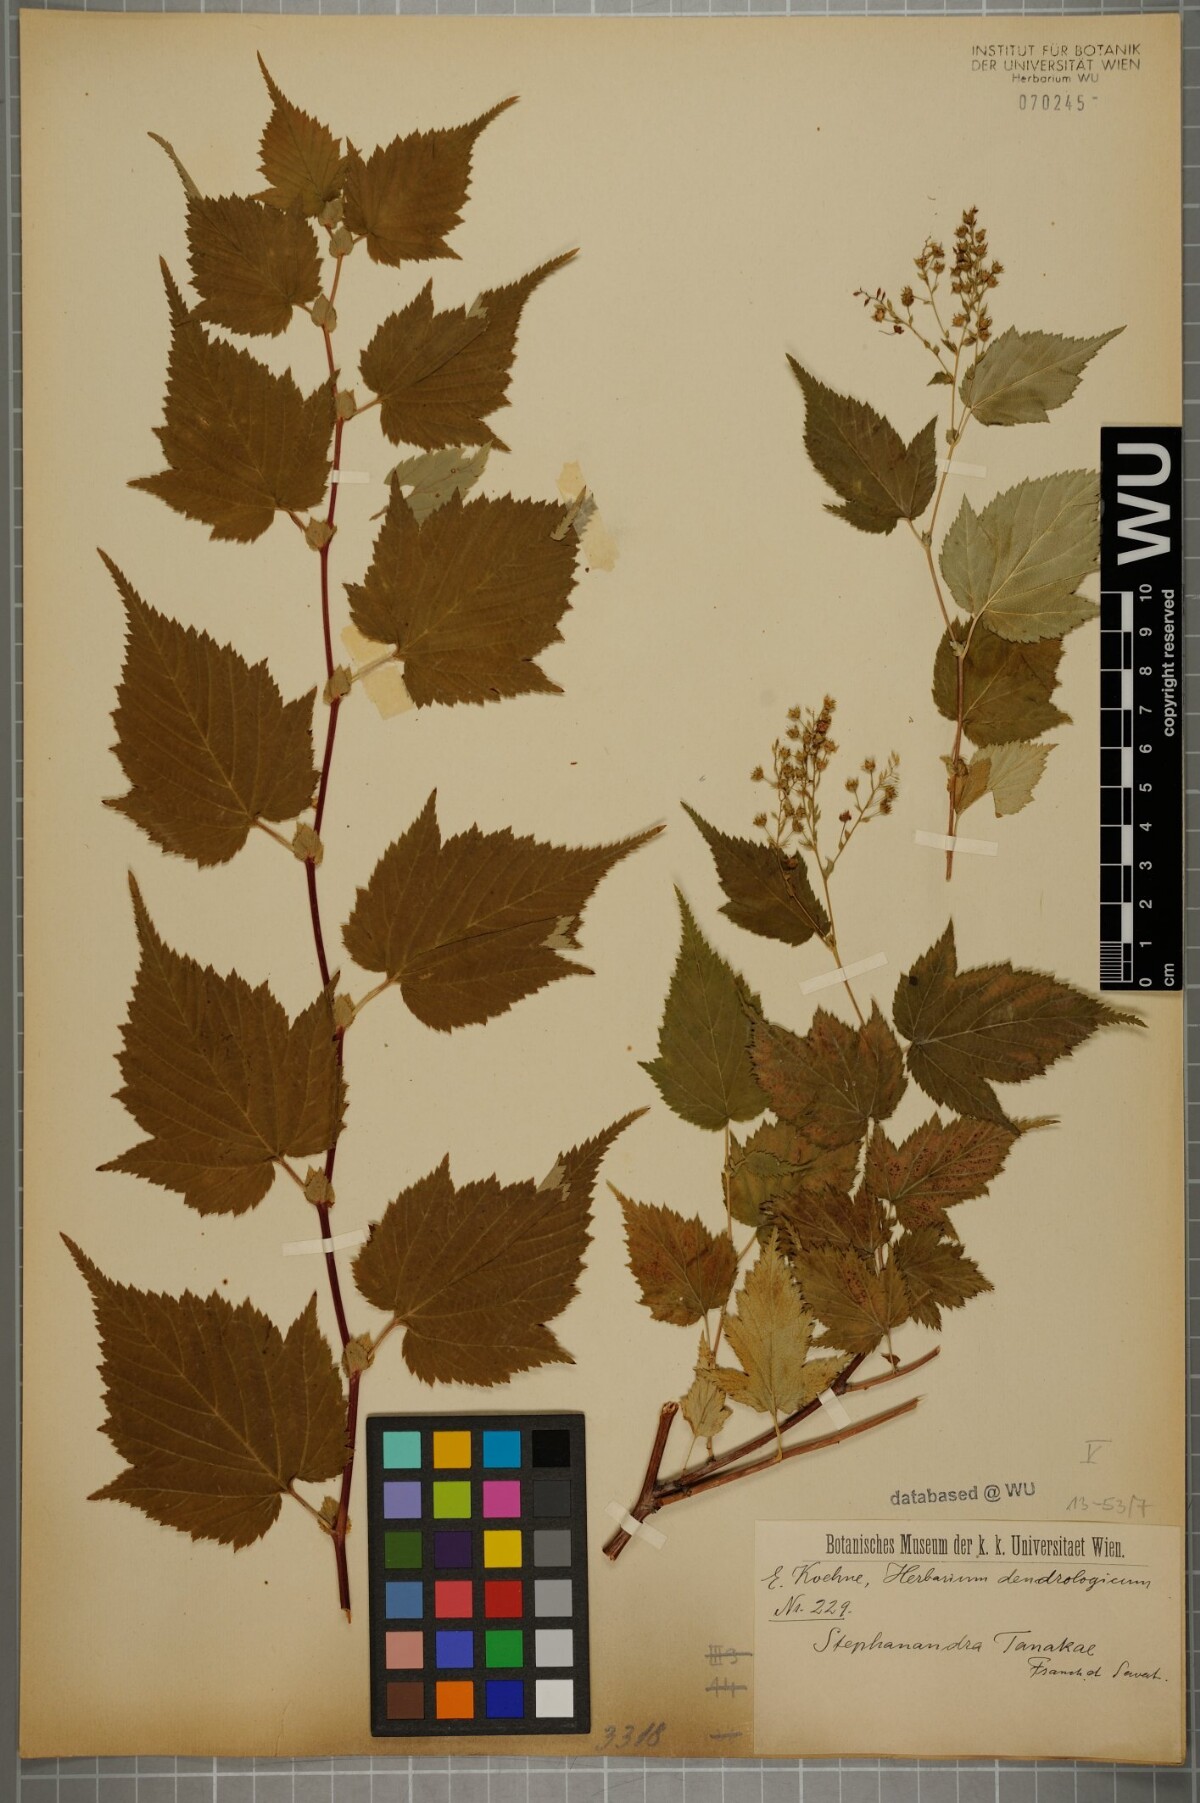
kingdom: Plantae
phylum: Tracheophyta
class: Magnoliopsida
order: Rosales
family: Rosaceae
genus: Neillia
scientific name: Neillia tanakae
